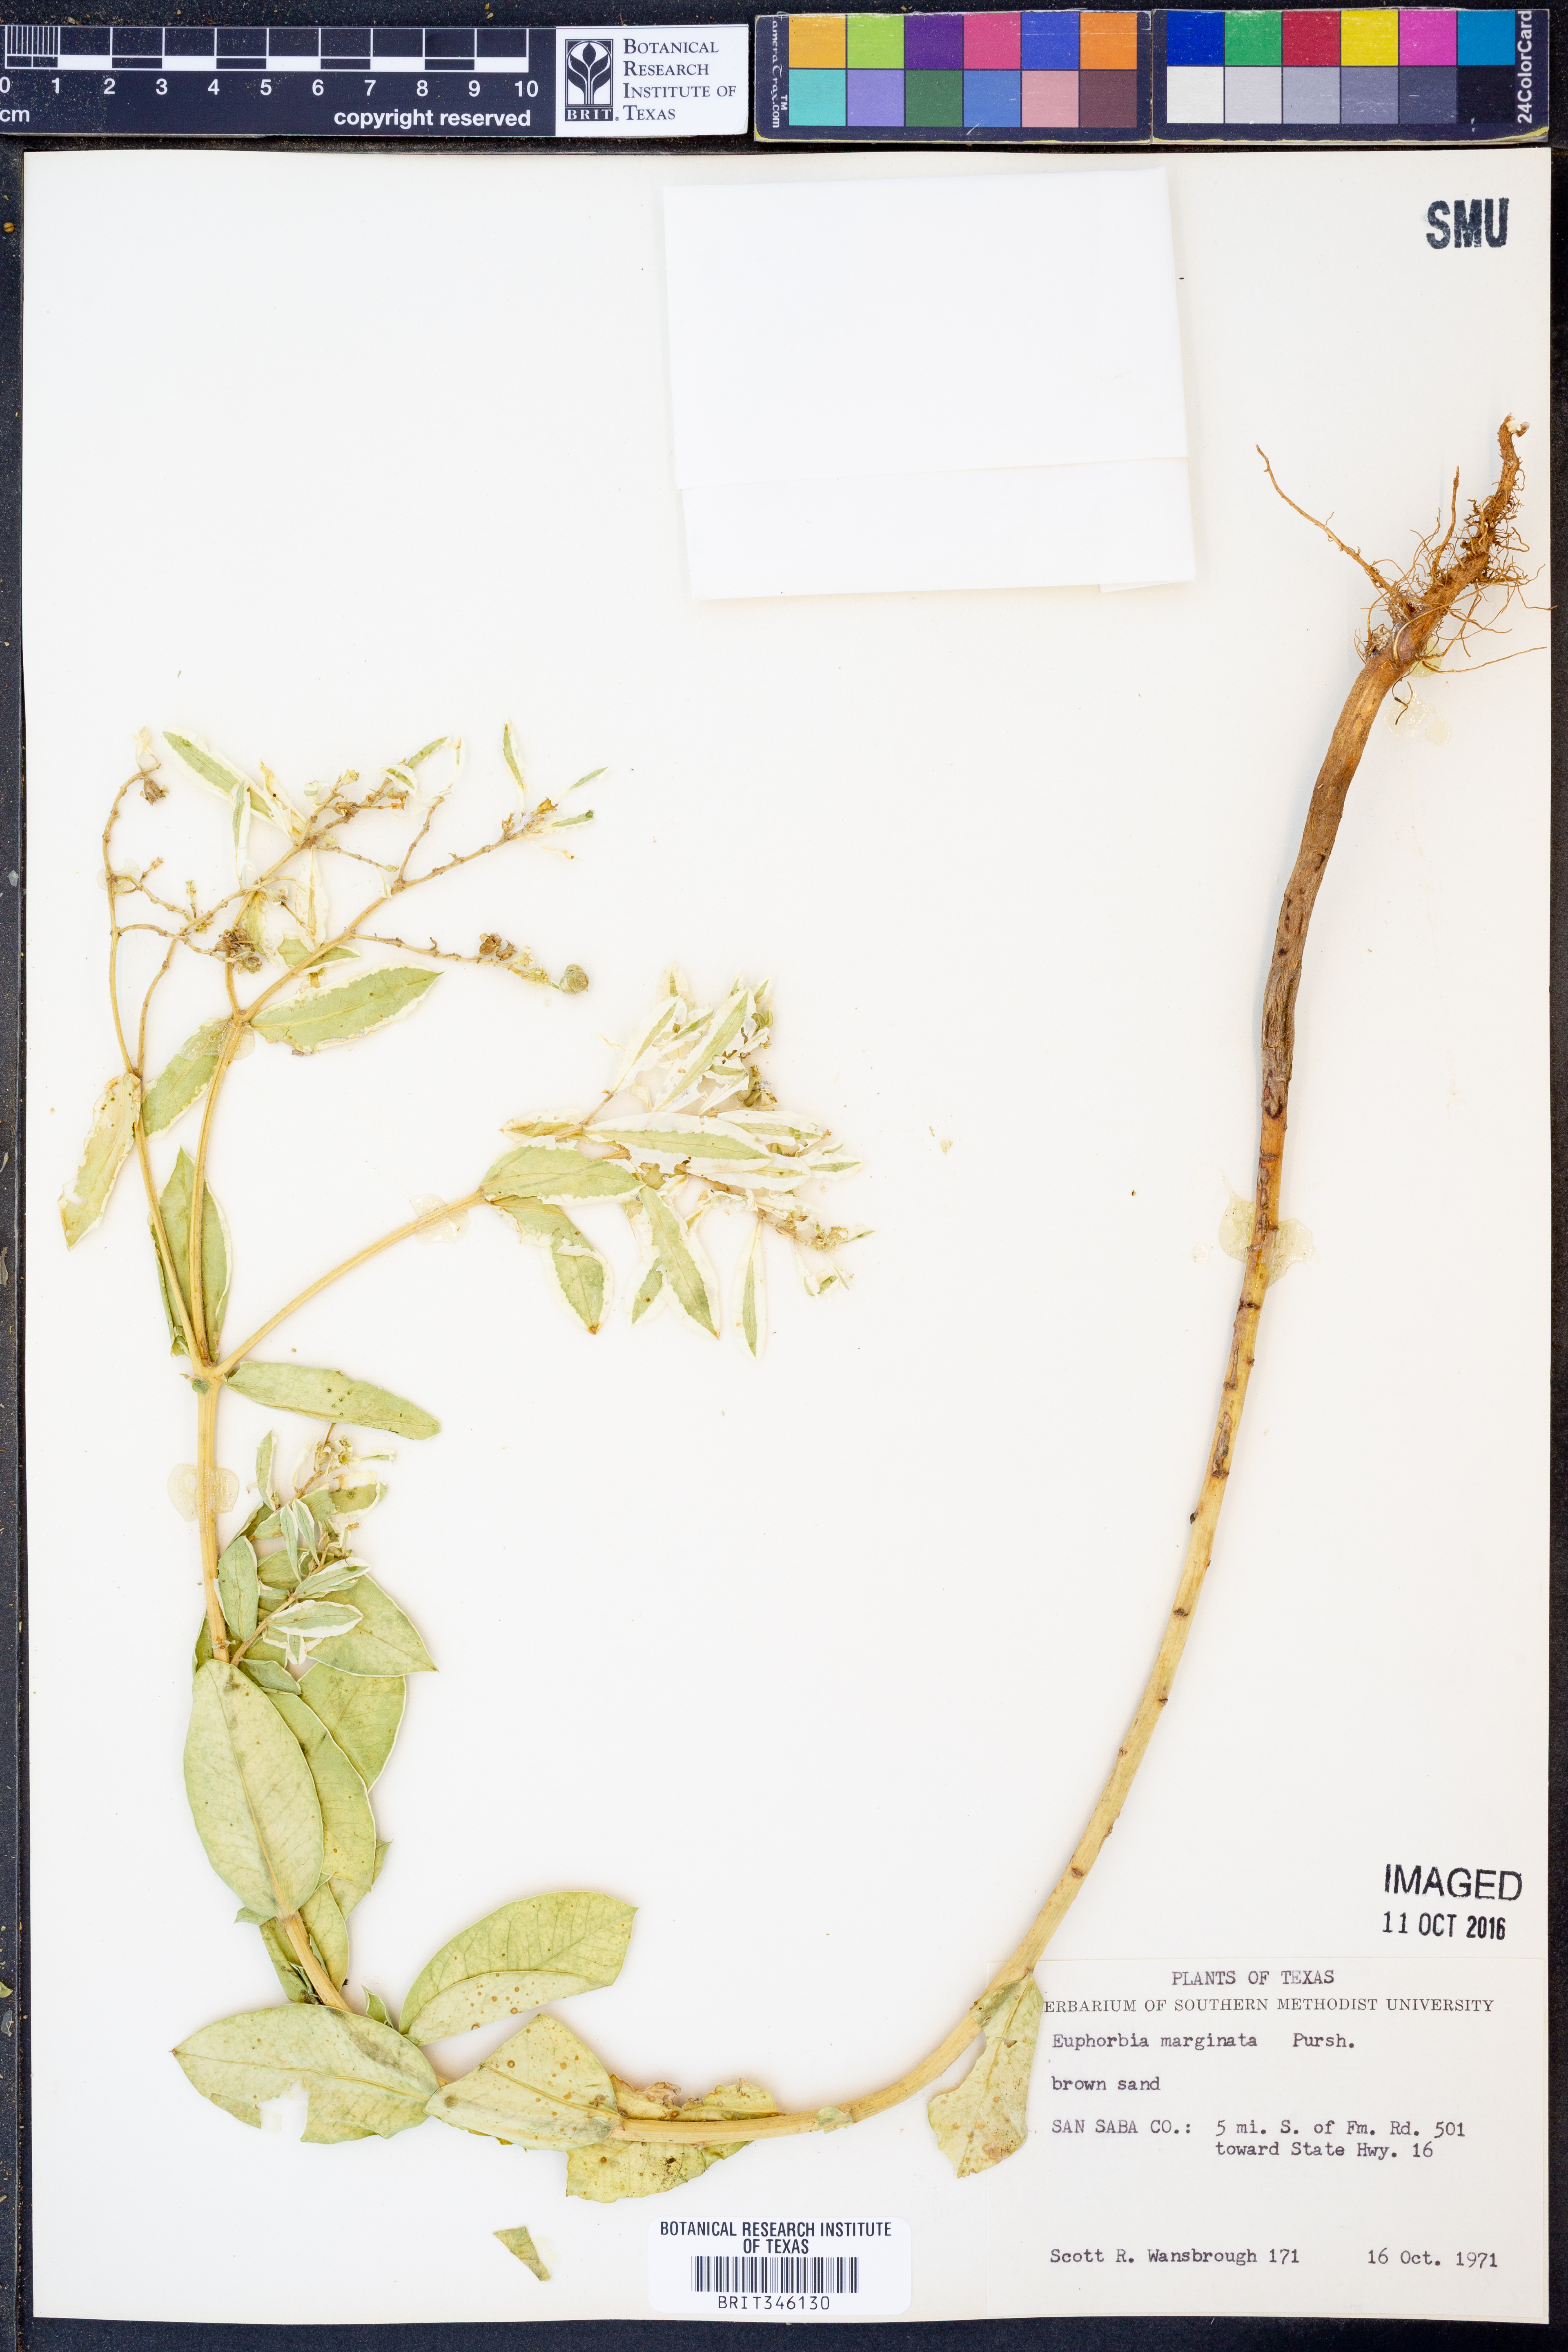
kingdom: Plantae
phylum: Tracheophyta
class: Magnoliopsida
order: Malpighiales
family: Euphorbiaceae
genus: Euphorbia
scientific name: Euphorbia marginata
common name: Ghostweed
